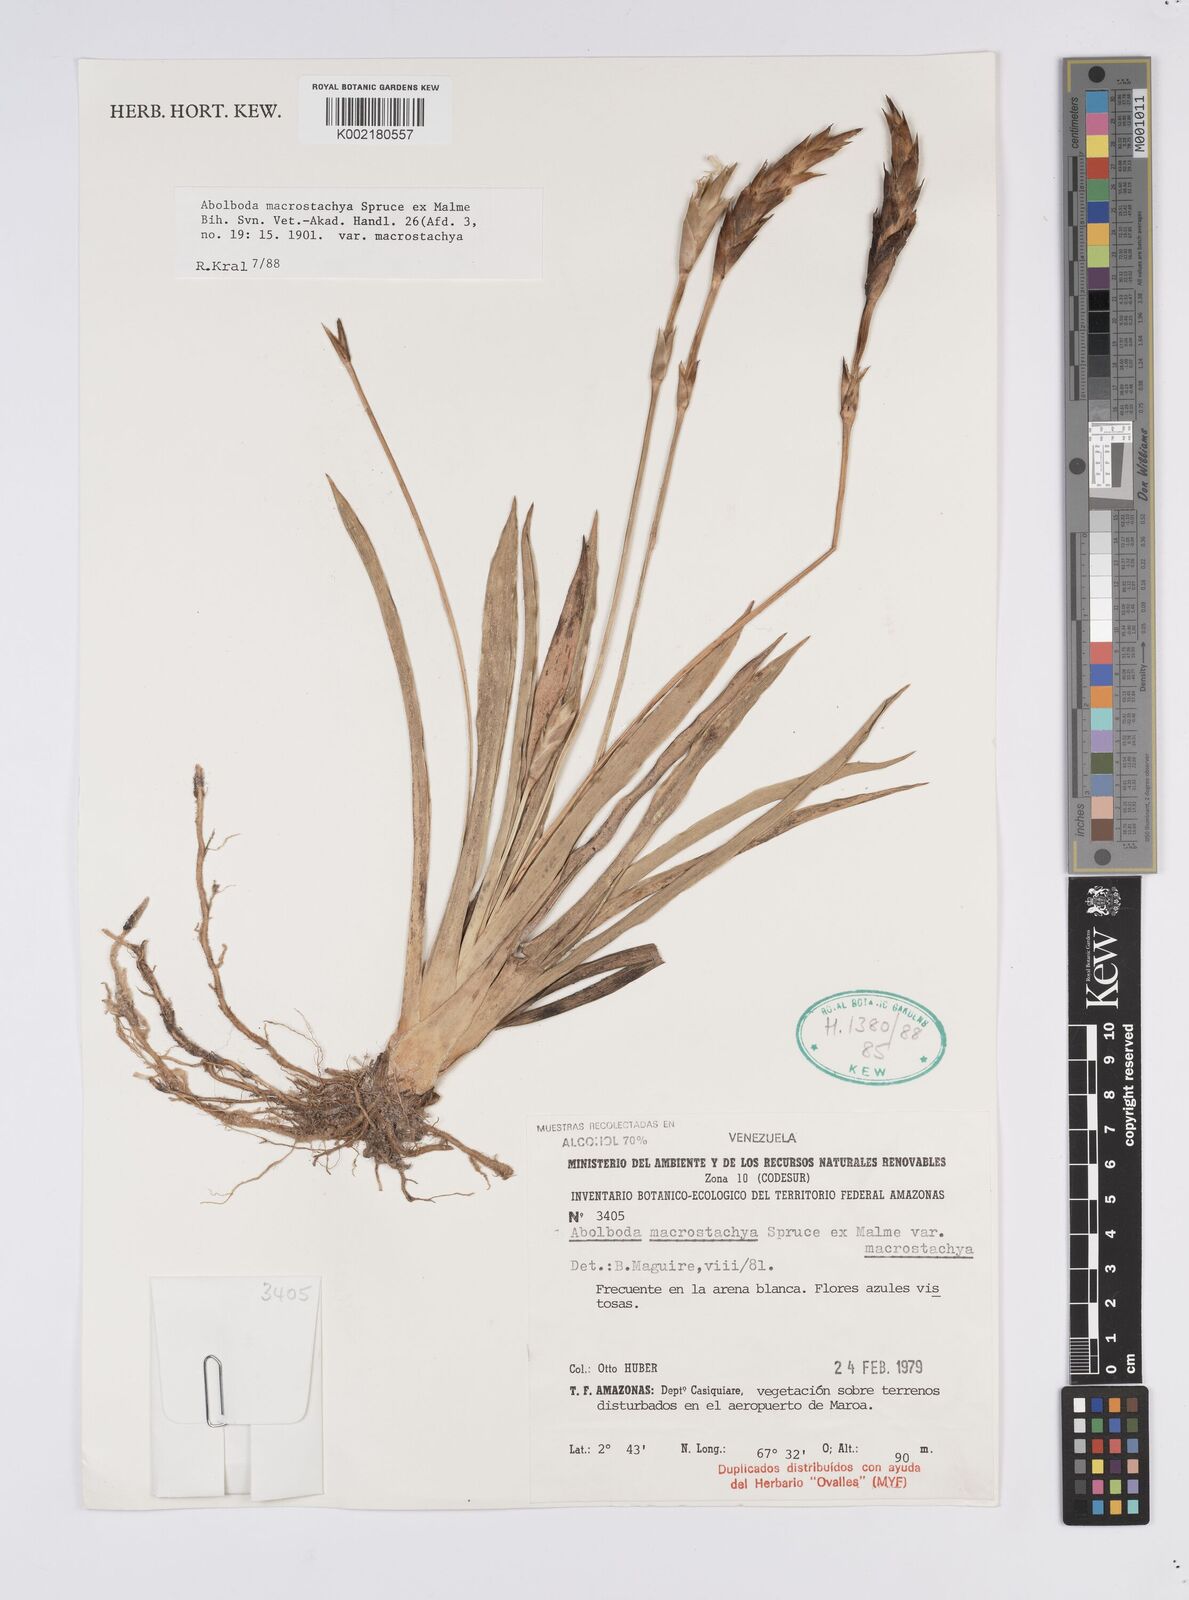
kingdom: Plantae
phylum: Tracheophyta
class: Liliopsida
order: Poales
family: Xyridaceae
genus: Abolboda
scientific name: Abolboda macrostachya
